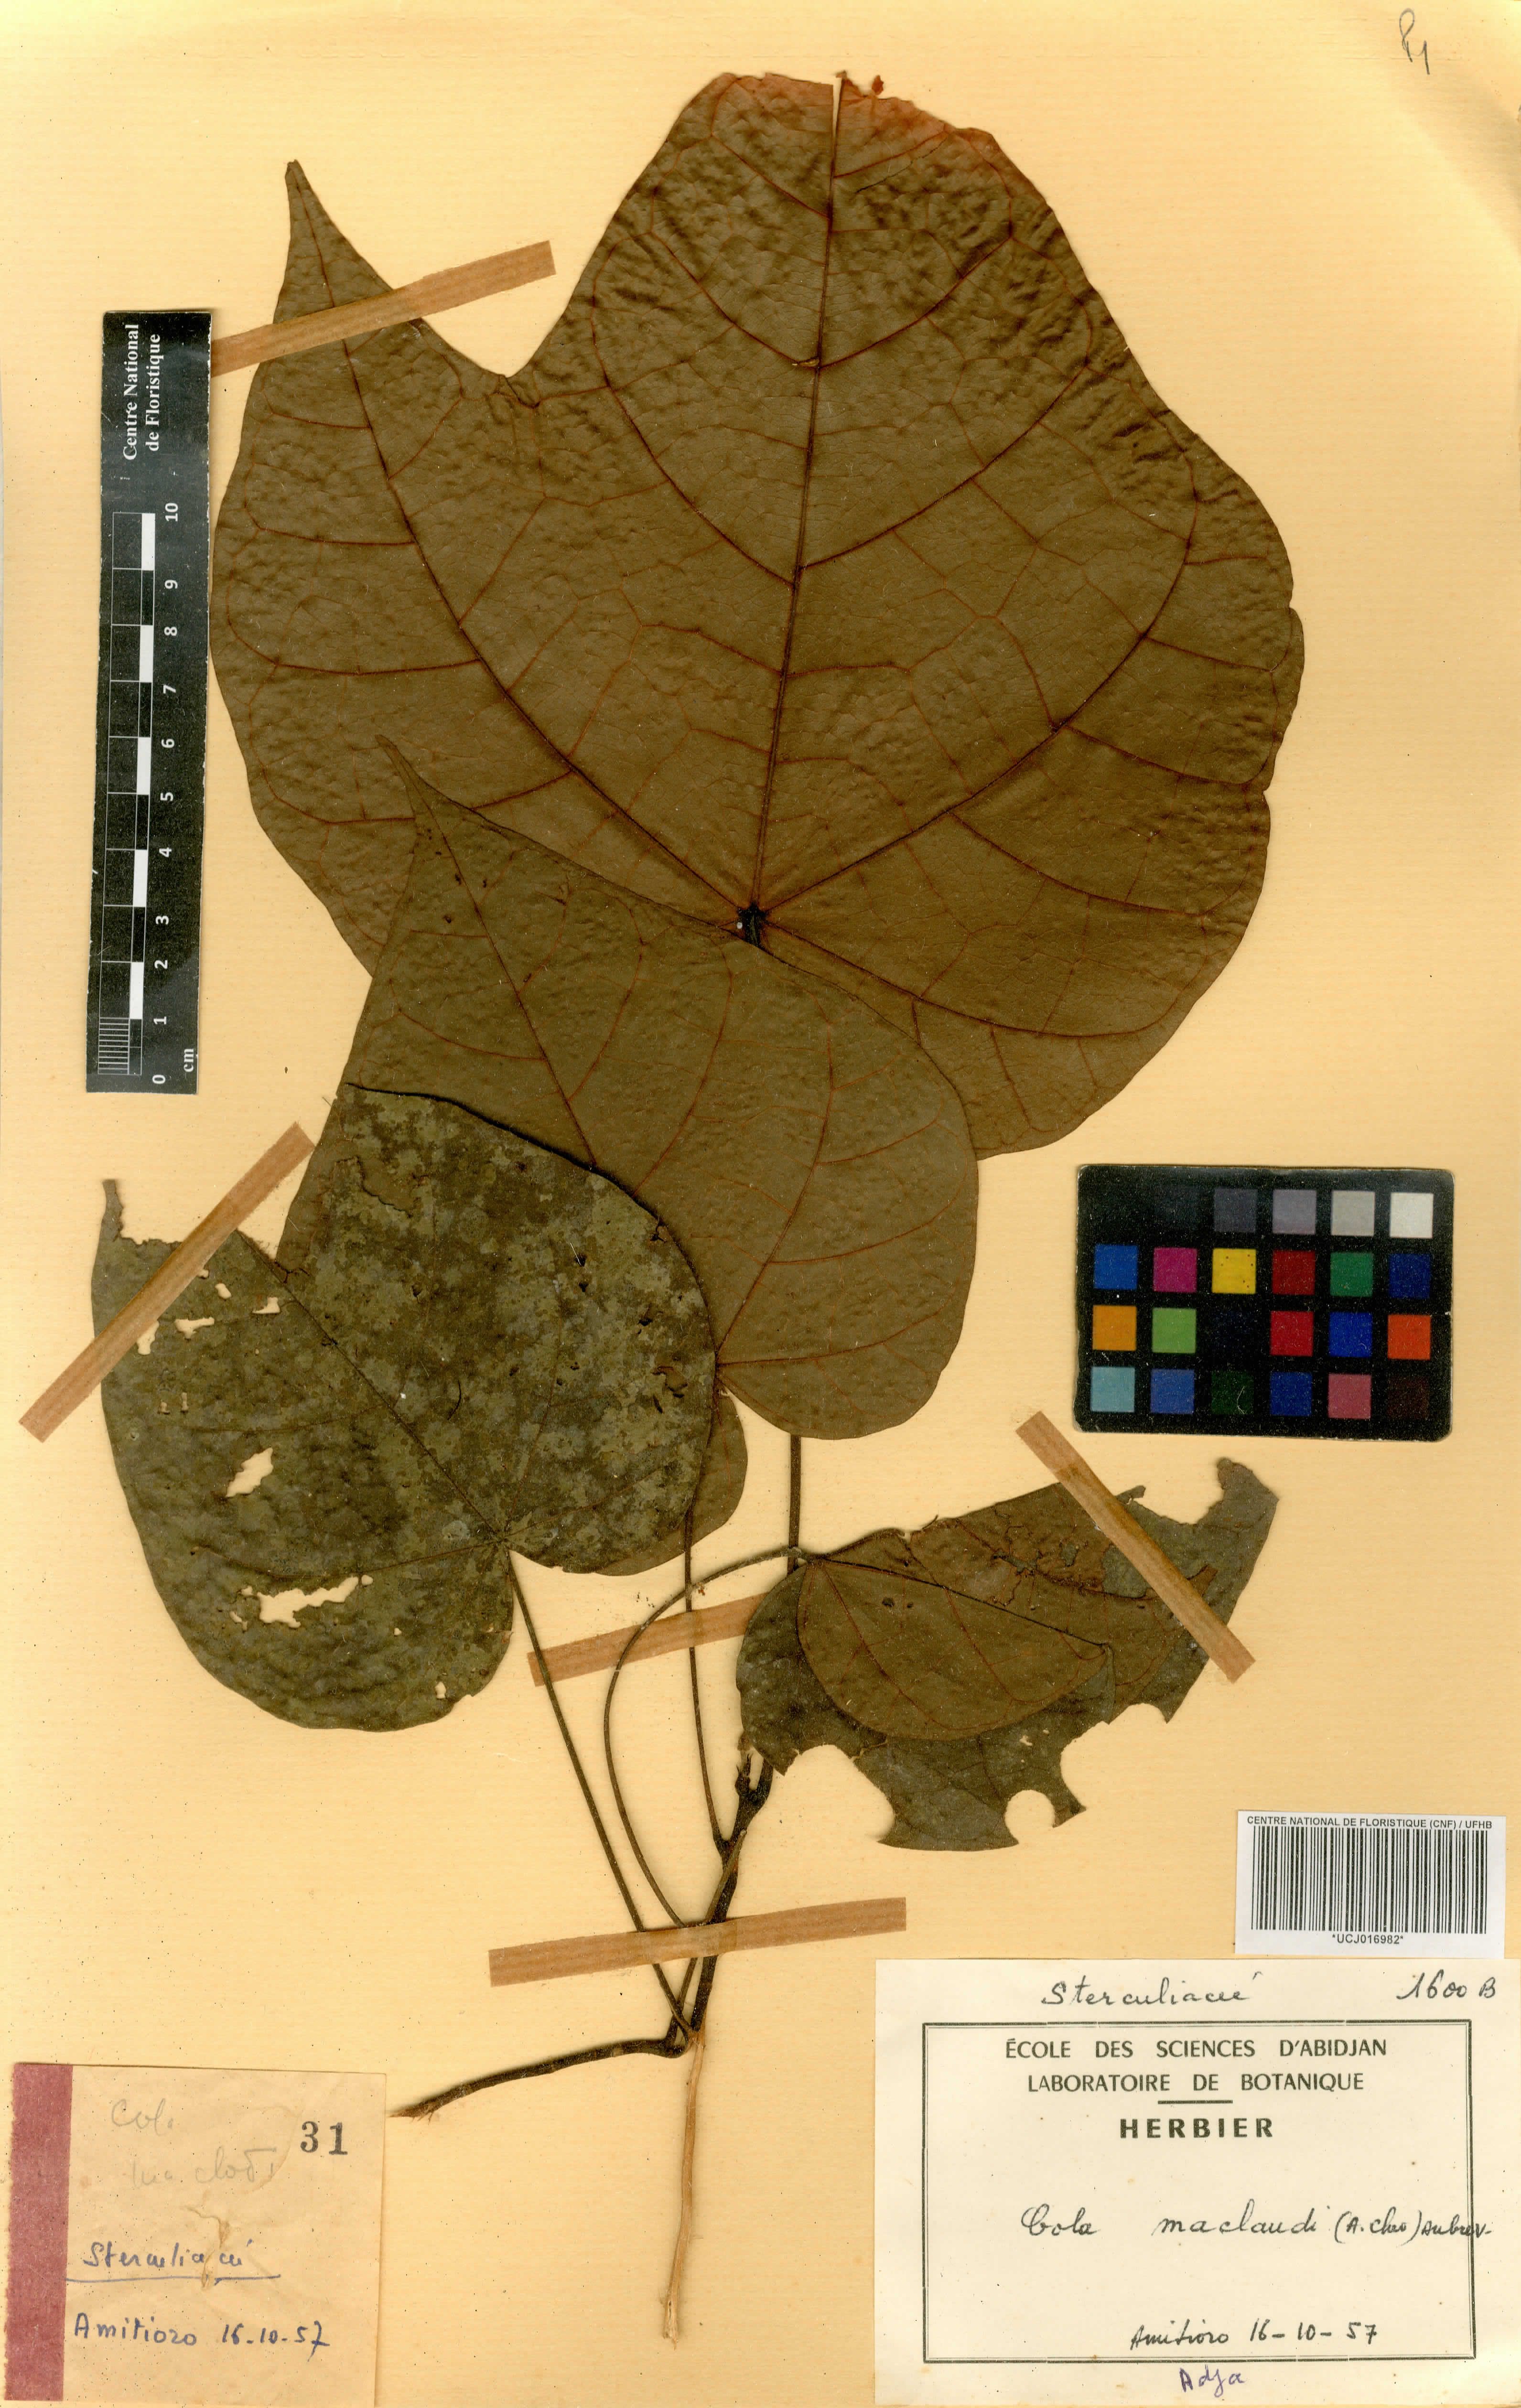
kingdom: Plantae
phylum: Tracheophyta
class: Magnoliopsida
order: Malvales
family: Malvaceae
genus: Cola
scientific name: Cola lateritia
